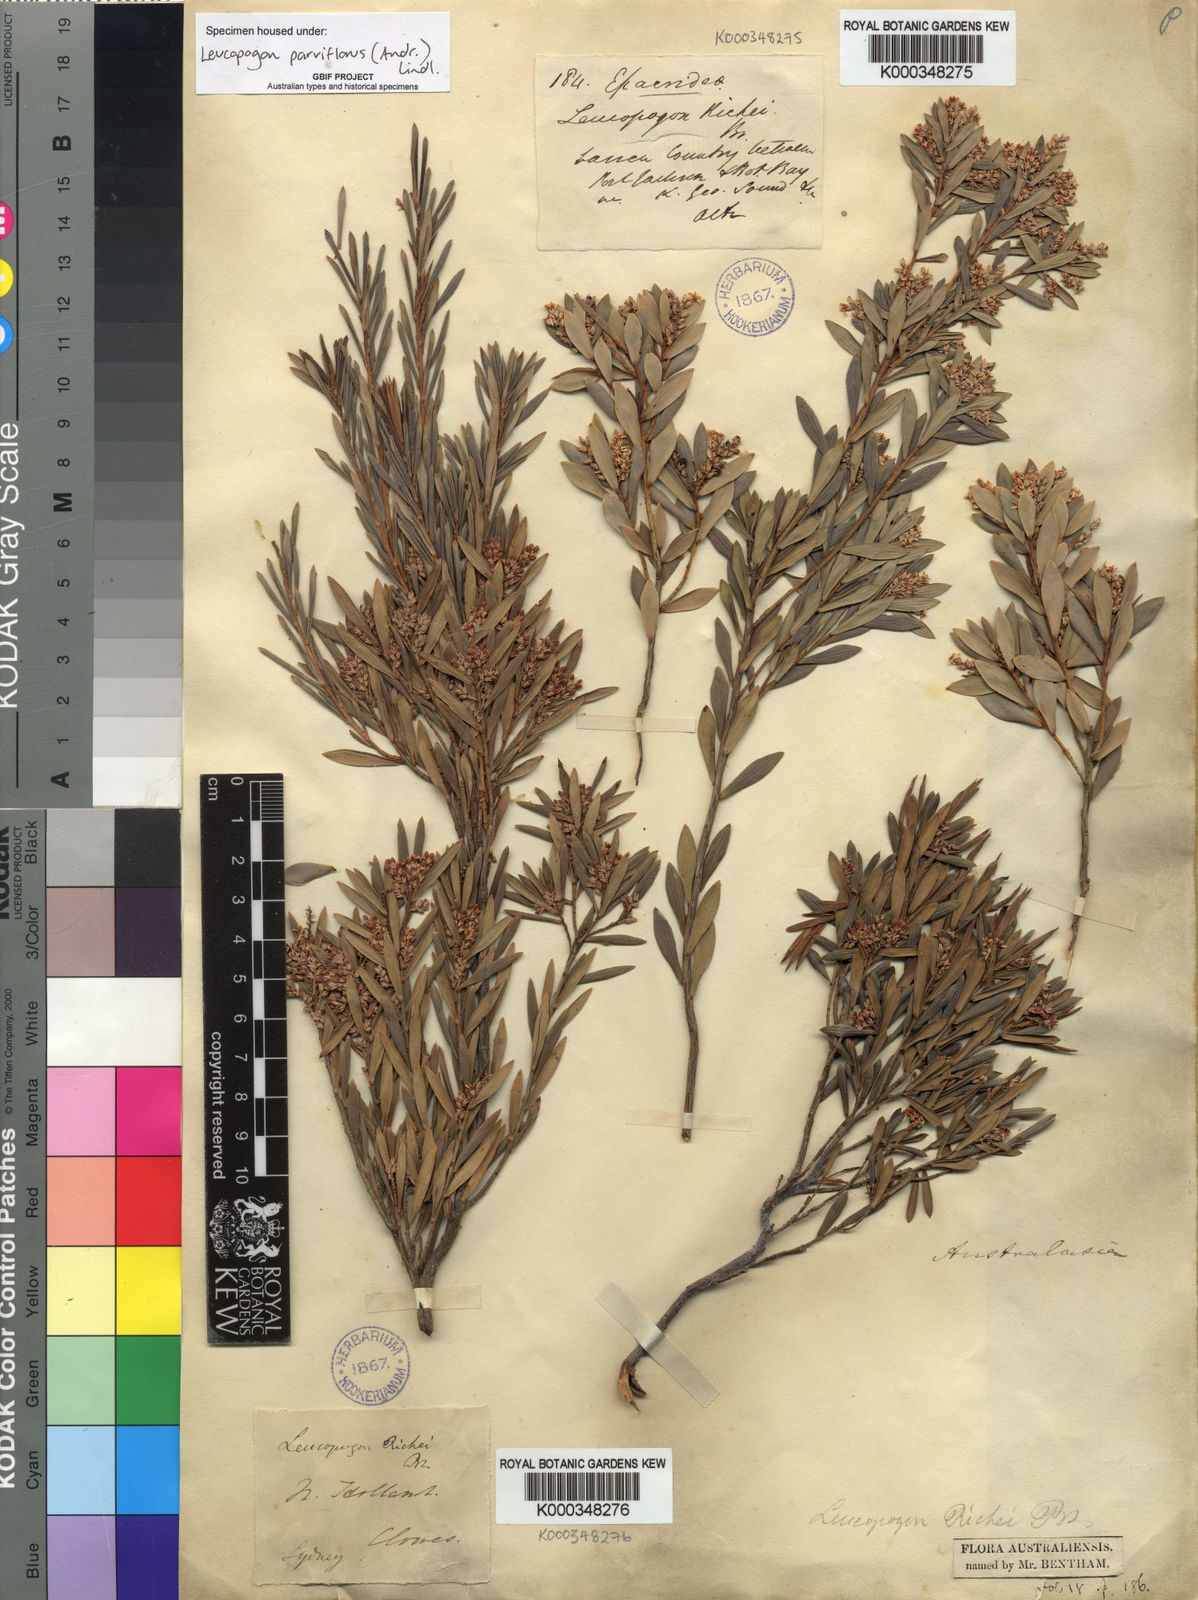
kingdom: Plantae
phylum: Tracheophyta
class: Magnoliopsida
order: Ericales
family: Ericaceae
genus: Leptecophylla
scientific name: Leptecophylla parvifolia
